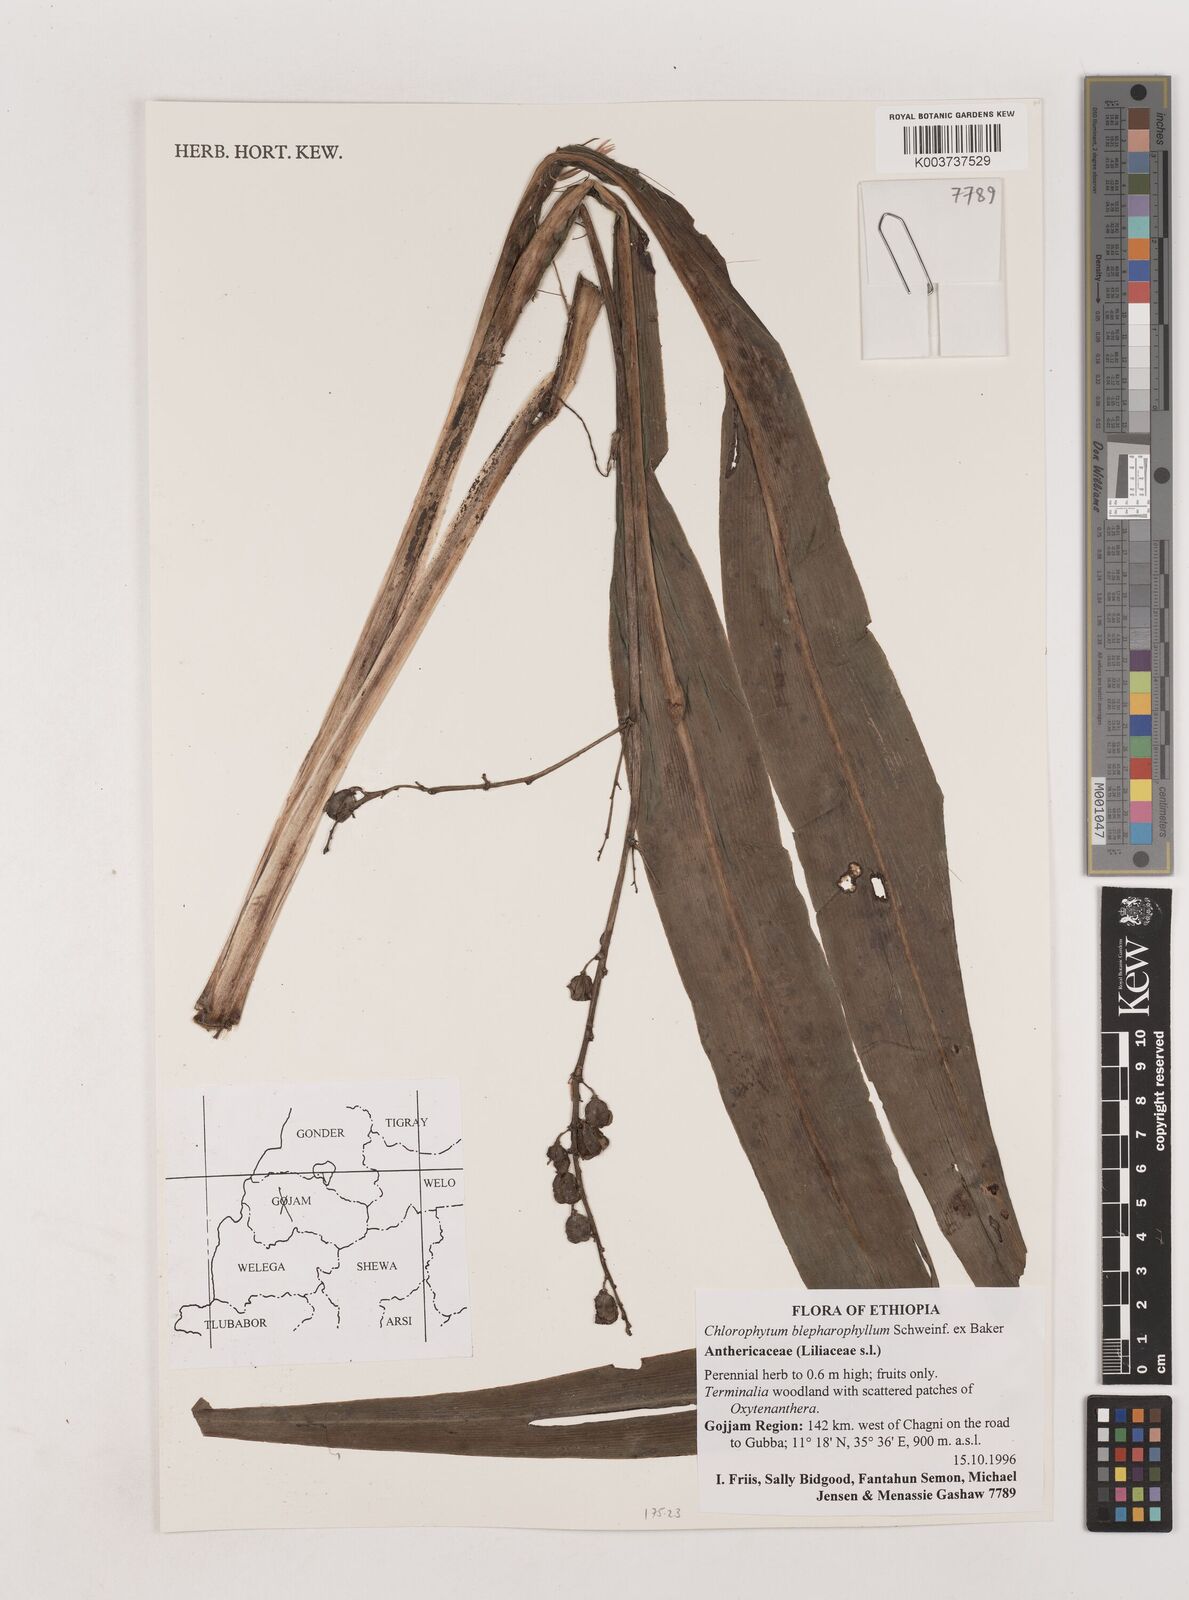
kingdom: Plantae
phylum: Tracheophyta
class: Liliopsida
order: Asparagales
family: Asparagaceae
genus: Chlorophytum
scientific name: Chlorophytum blepharophyllum
